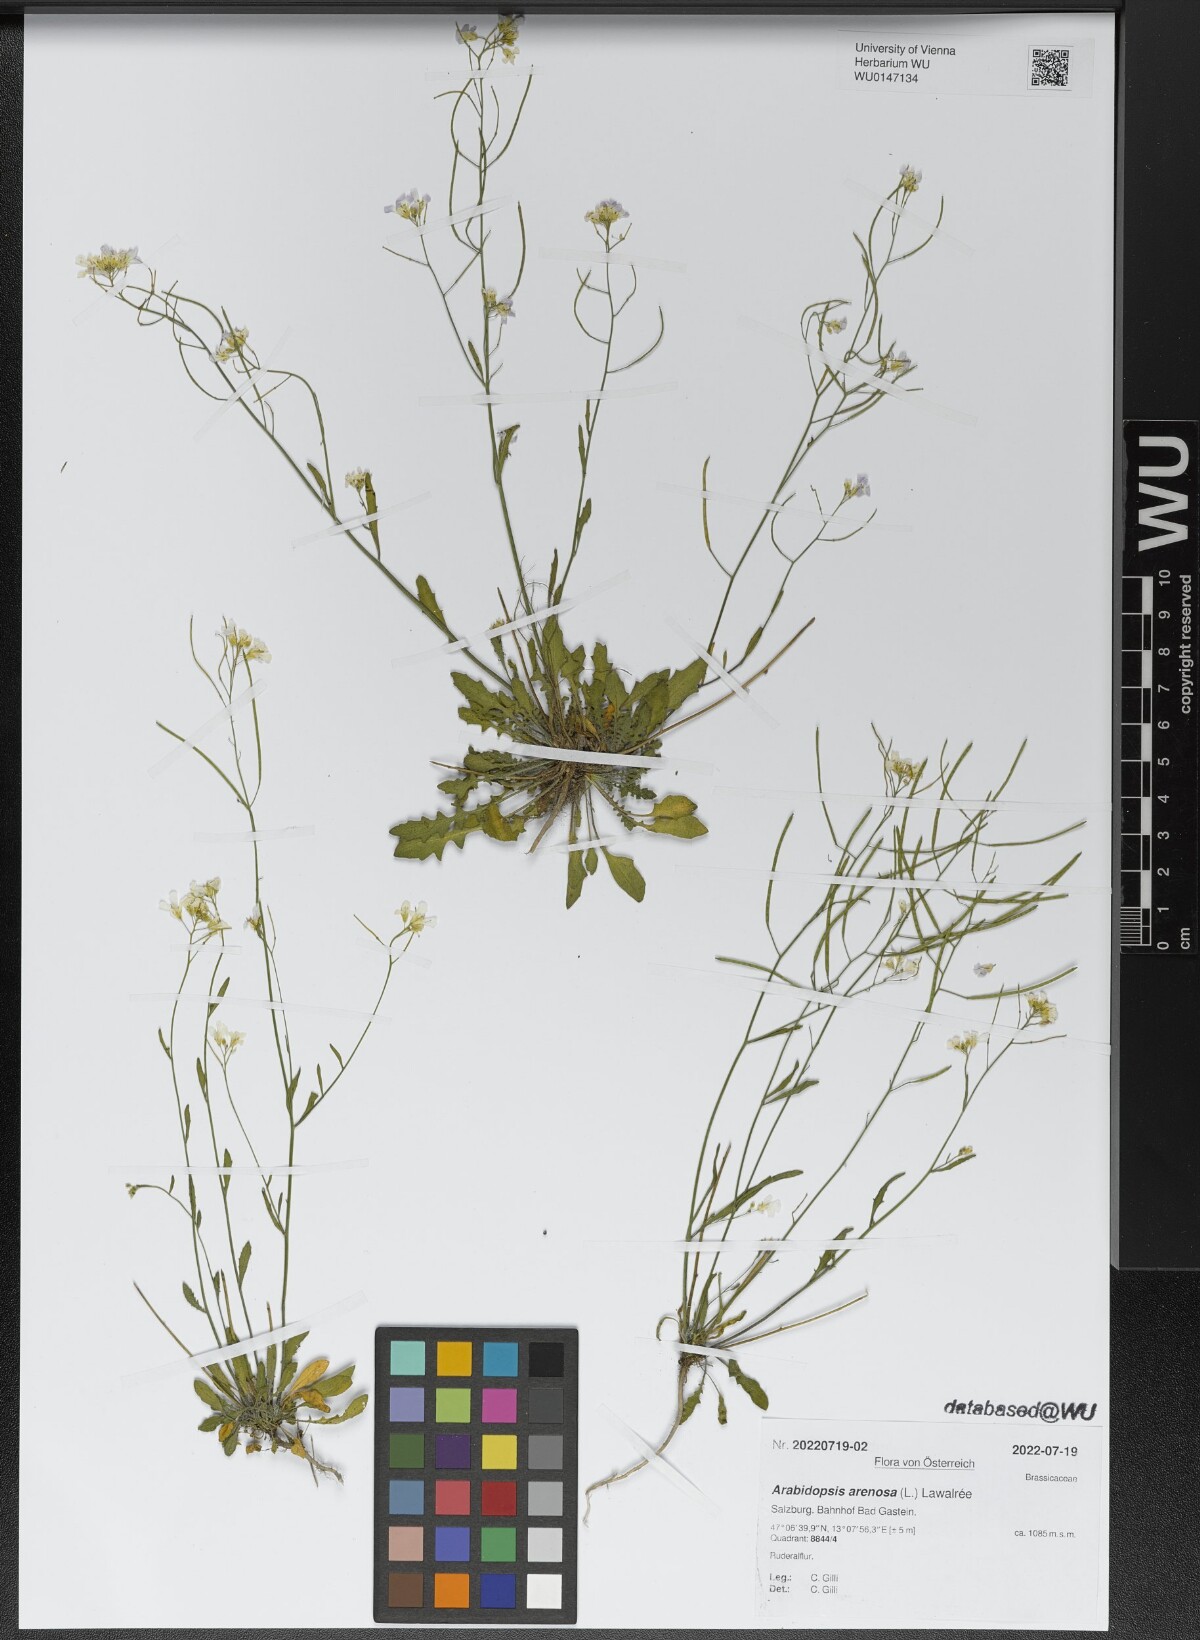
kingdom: Plantae
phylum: Tracheophyta
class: Magnoliopsida
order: Brassicales
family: Brassicaceae
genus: Arabidopsis
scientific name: Arabidopsis arenosa
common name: Sand rock-cress
